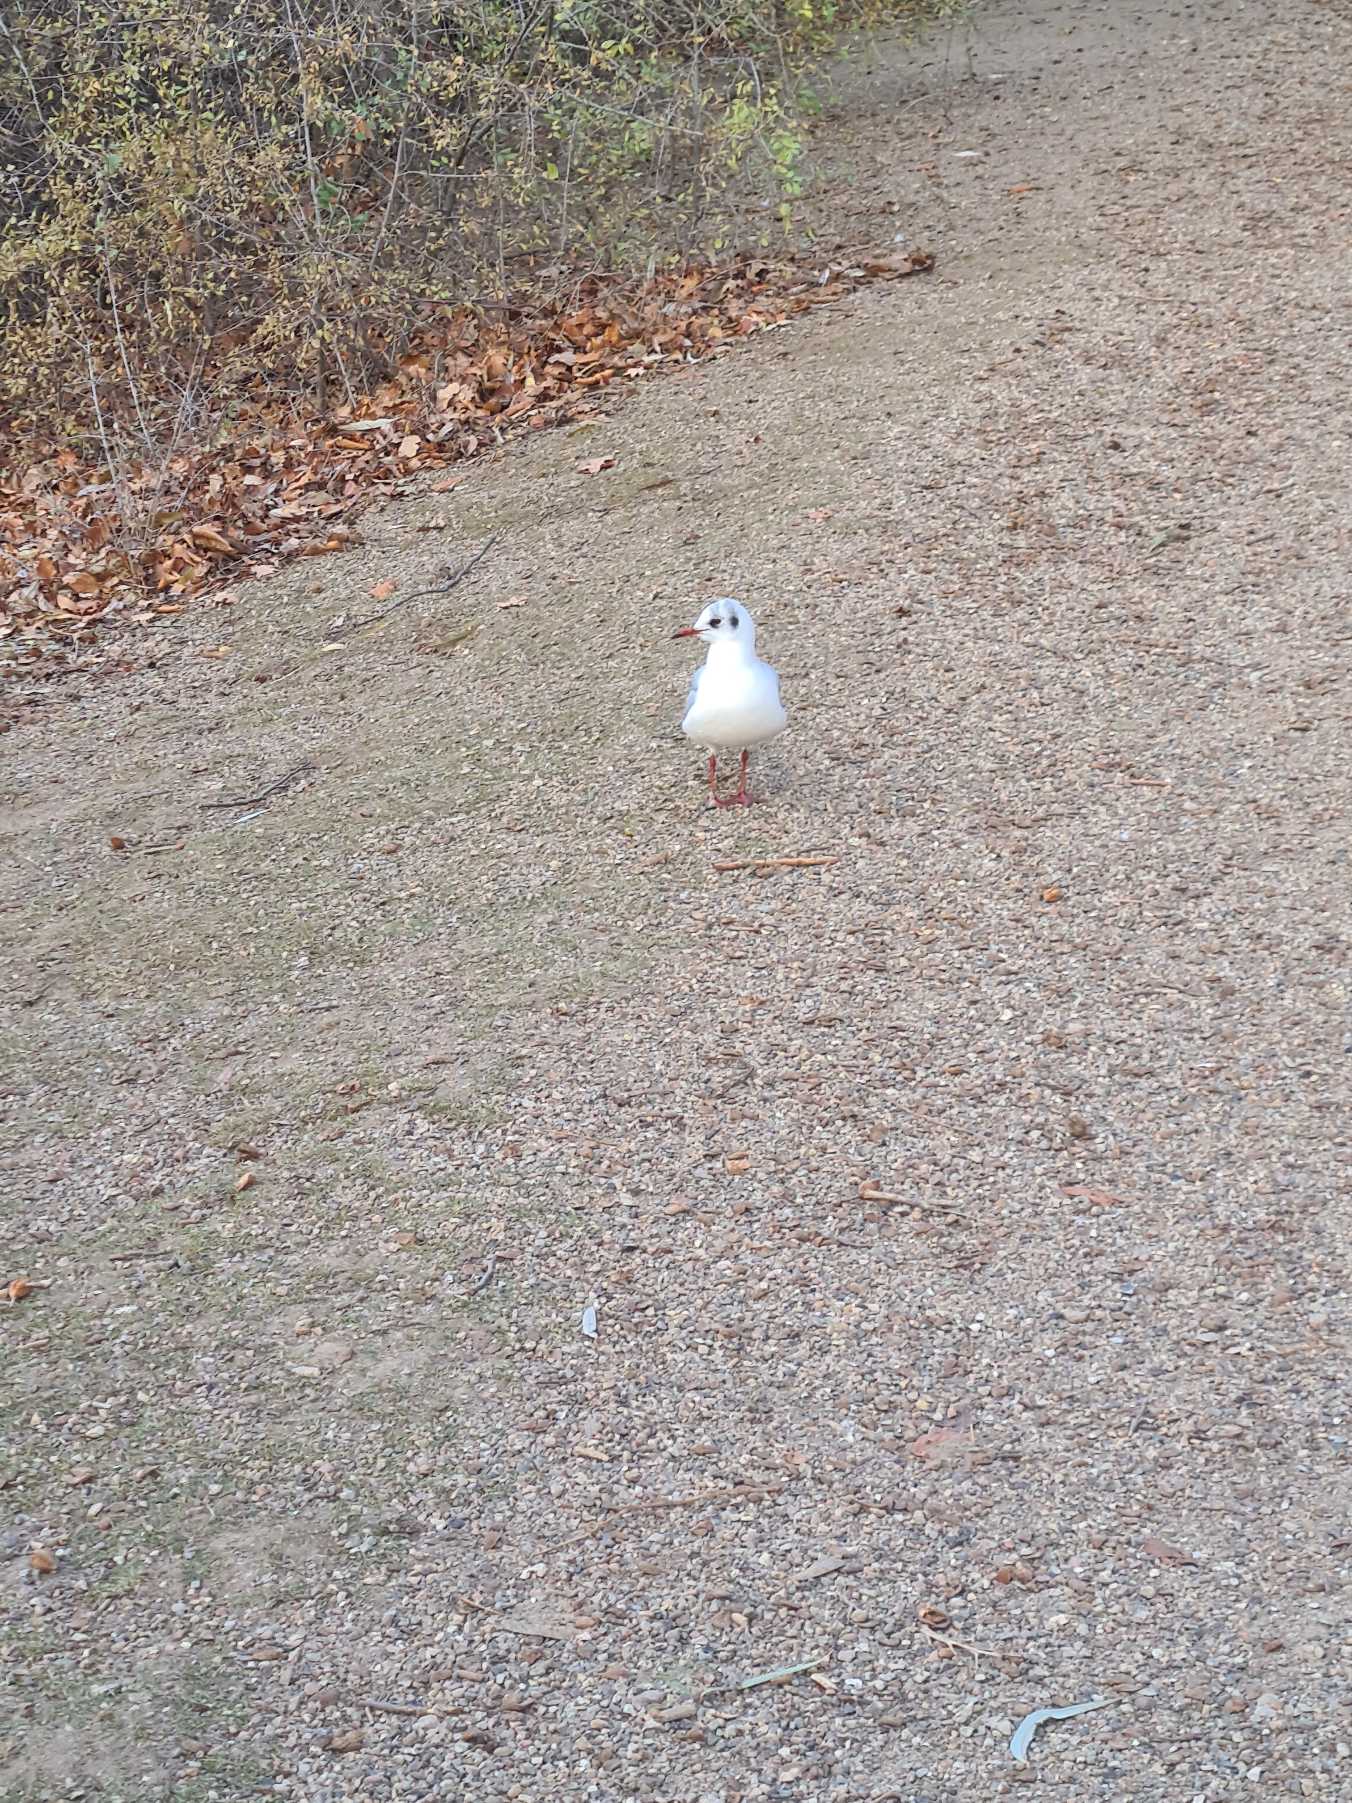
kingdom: Animalia
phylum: Chordata
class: Aves
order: Charadriiformes
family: Laridae
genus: Chroicocephalus
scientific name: Chroicocephalus ridibundus
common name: Hættemåge
